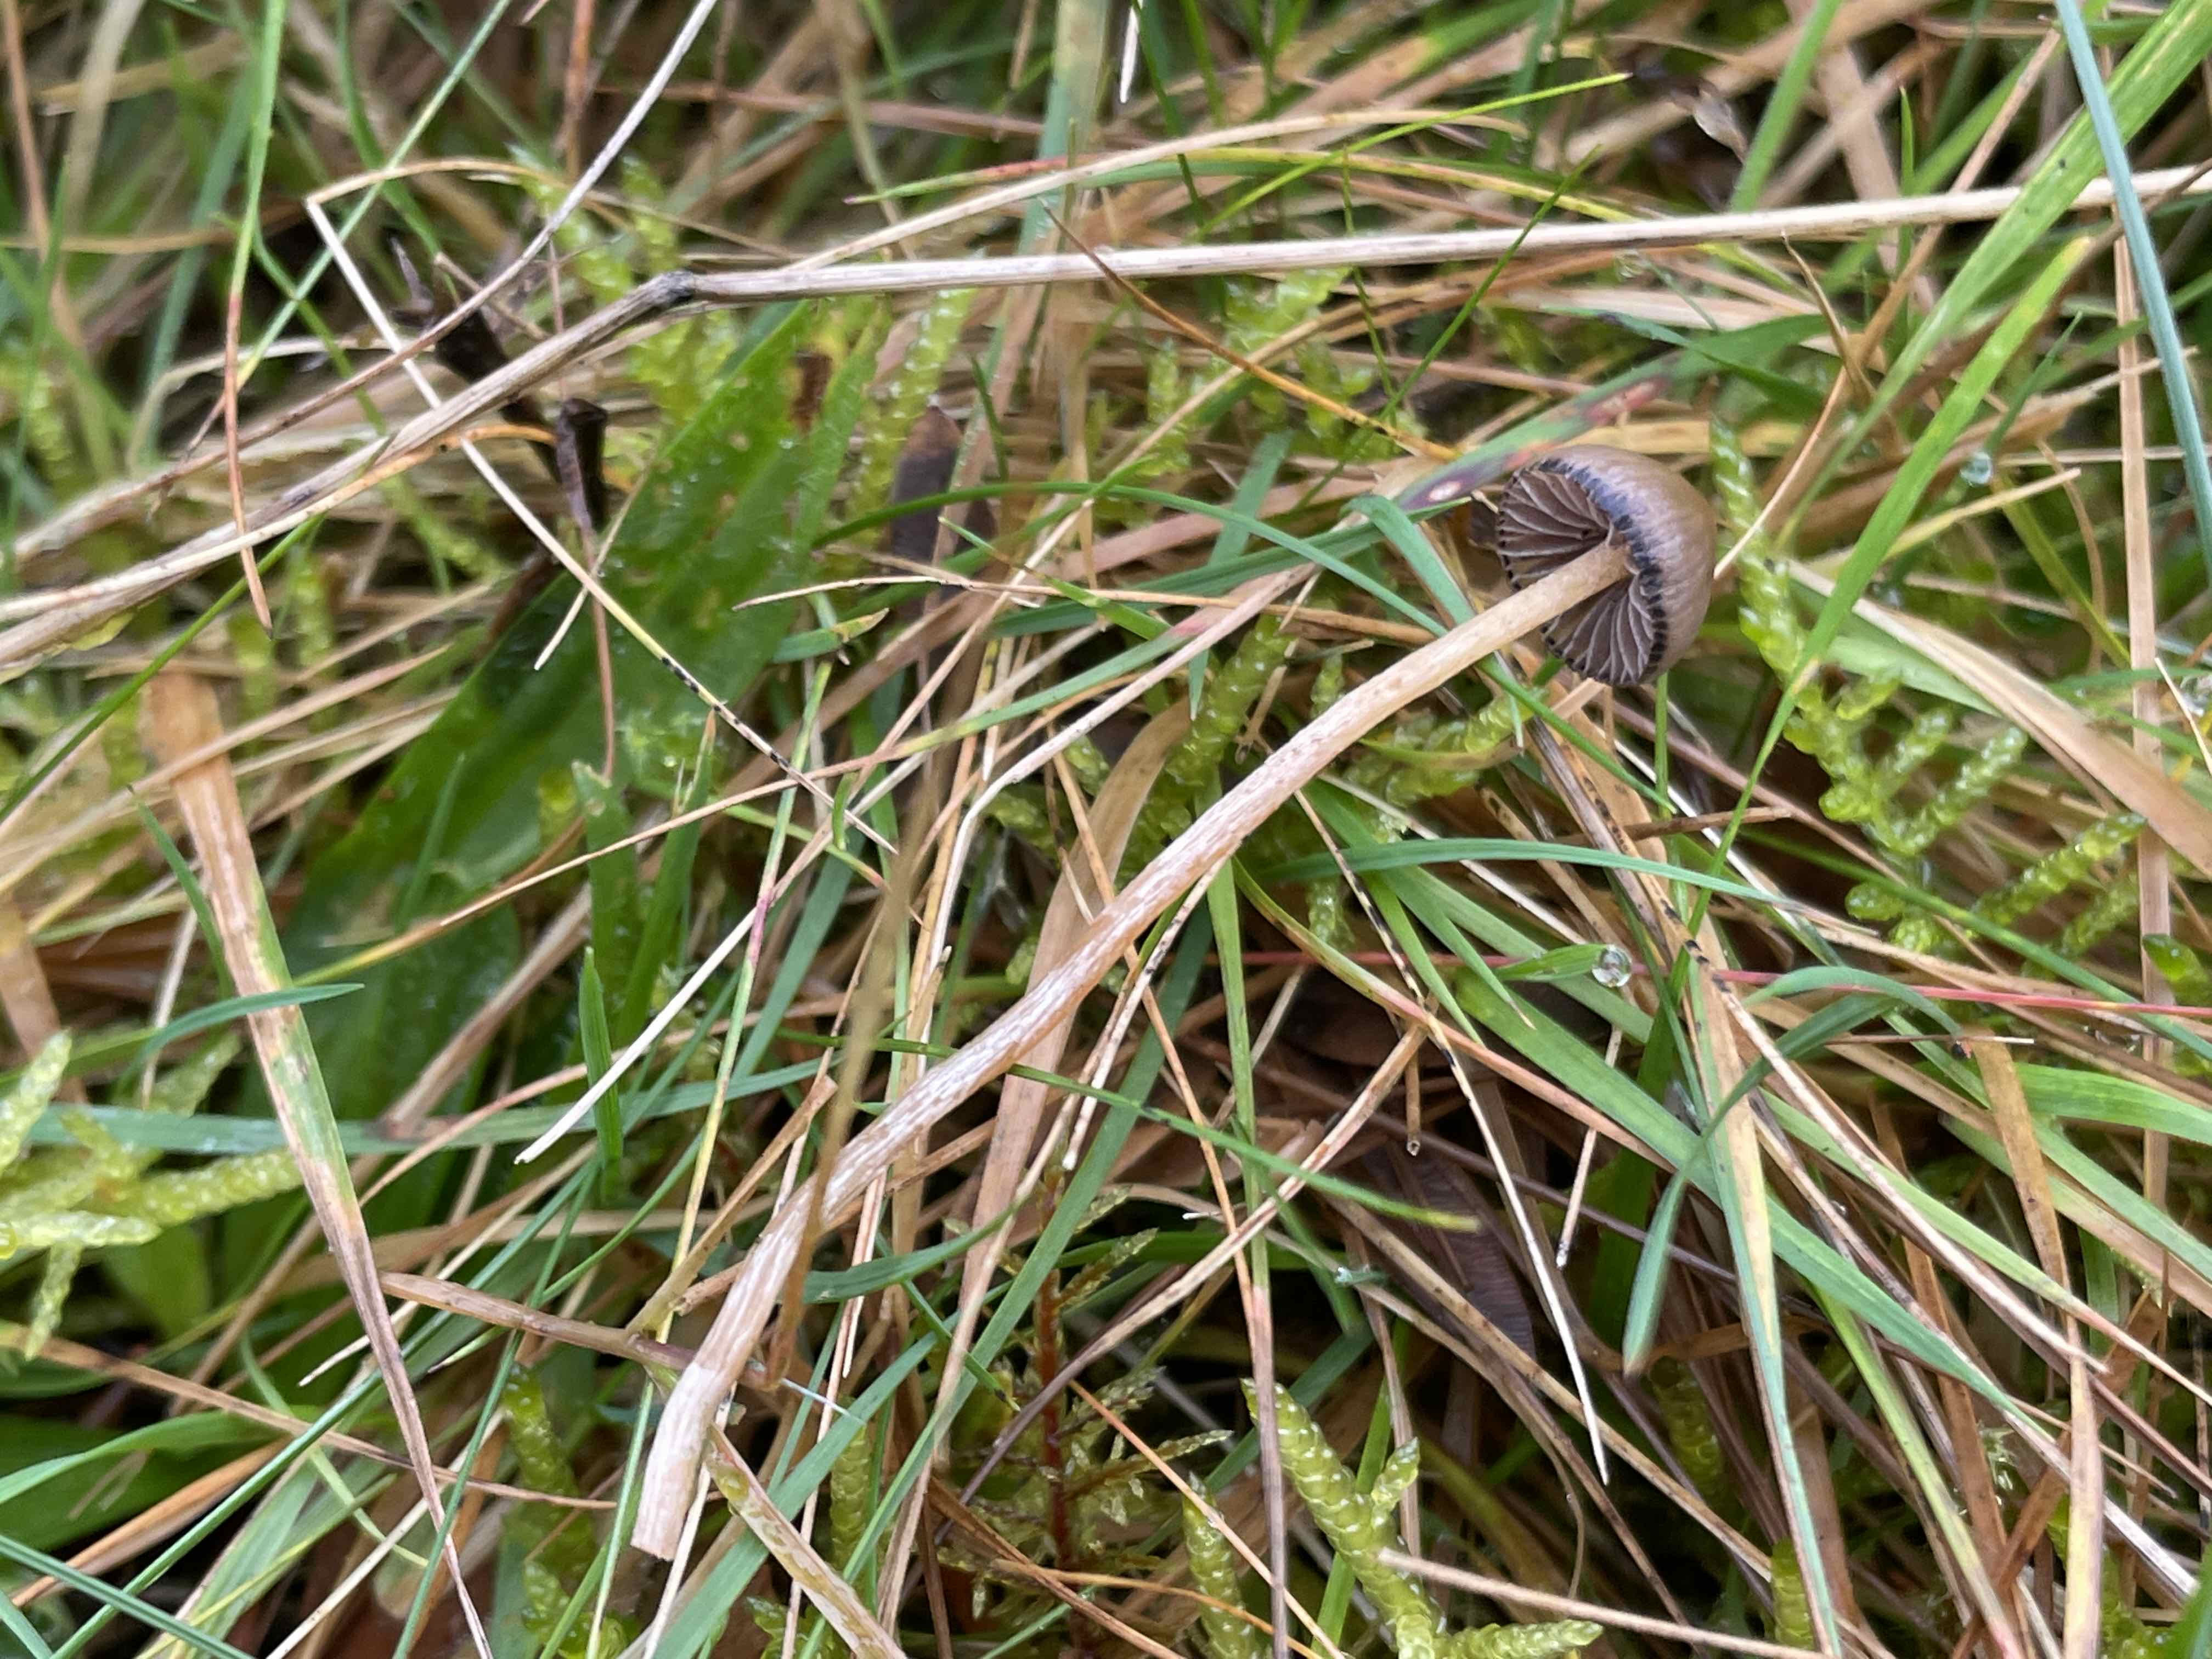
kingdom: Fungi
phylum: Basidiomycota
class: Agaricomycetes
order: Agaricales
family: Hymenogastraceae
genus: Psilocybe
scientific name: Psilocybe semilanceata
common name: spids nøgenhat
